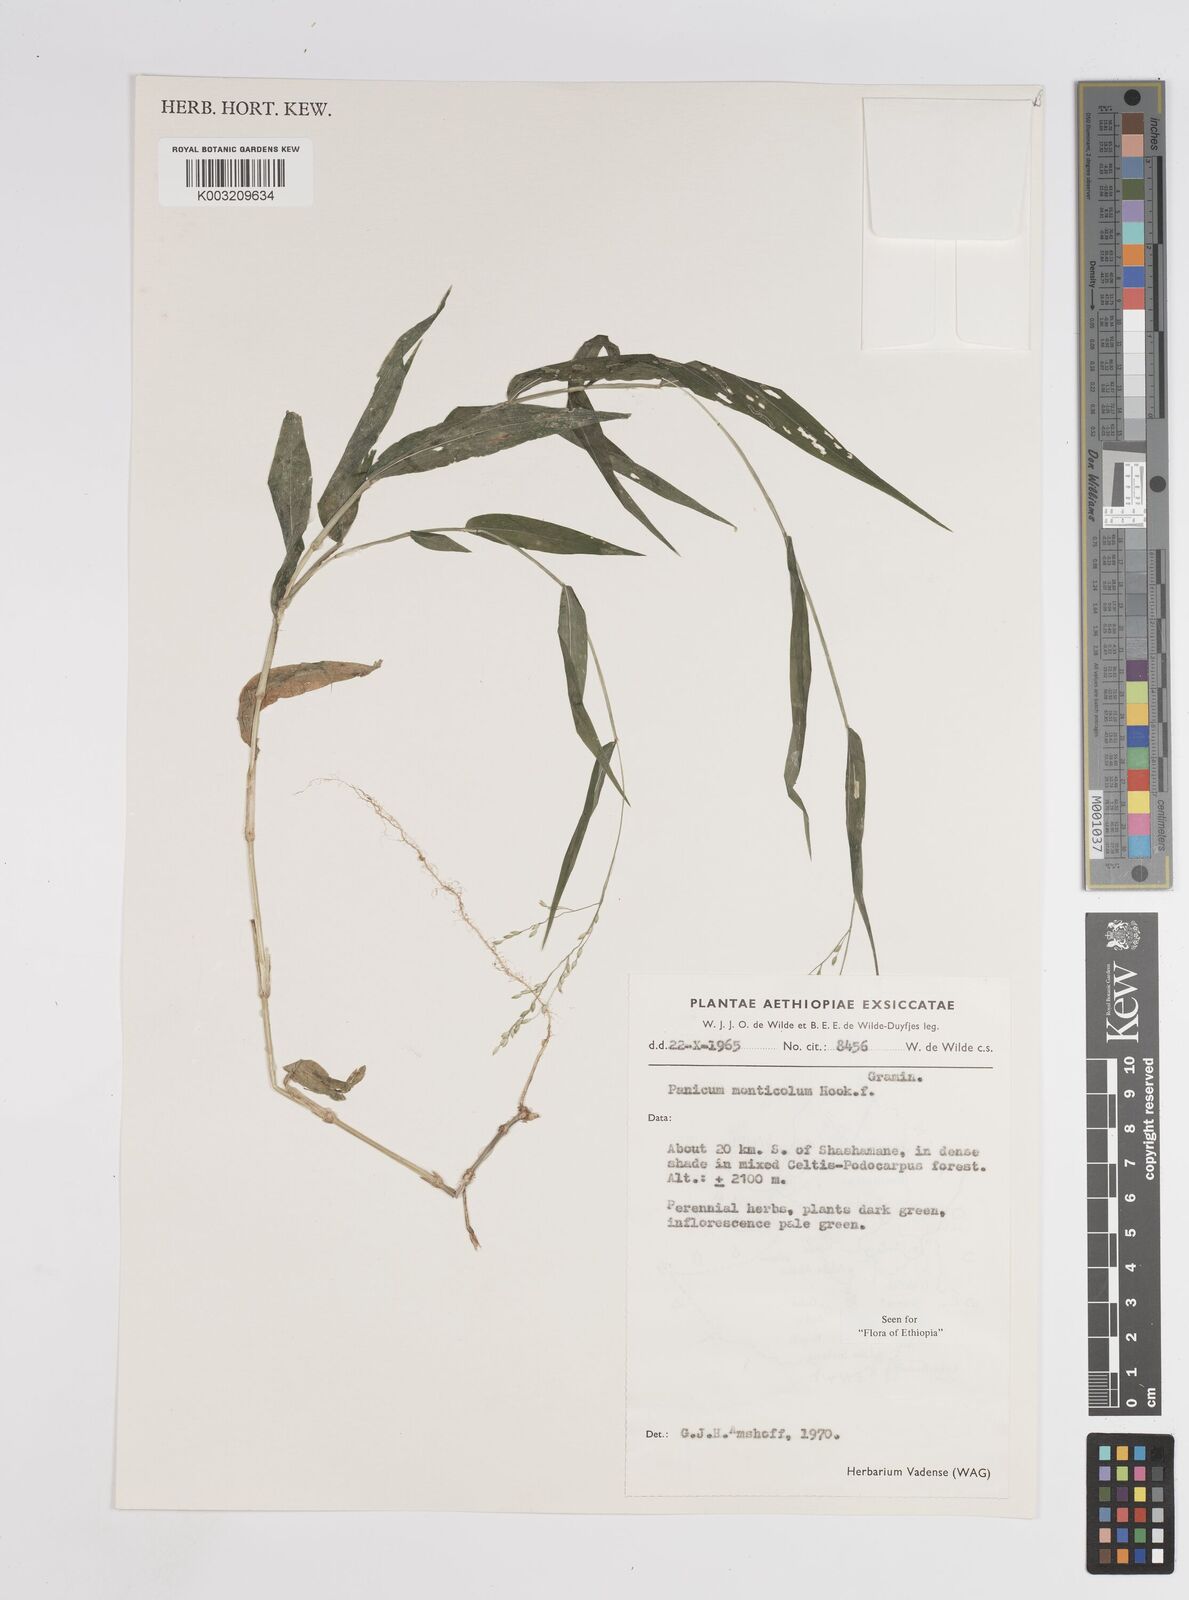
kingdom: Plantae
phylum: Tracheophyta
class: Liliopsida
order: Poales
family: Poaceae
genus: Panicum
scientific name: Panicum monticola
